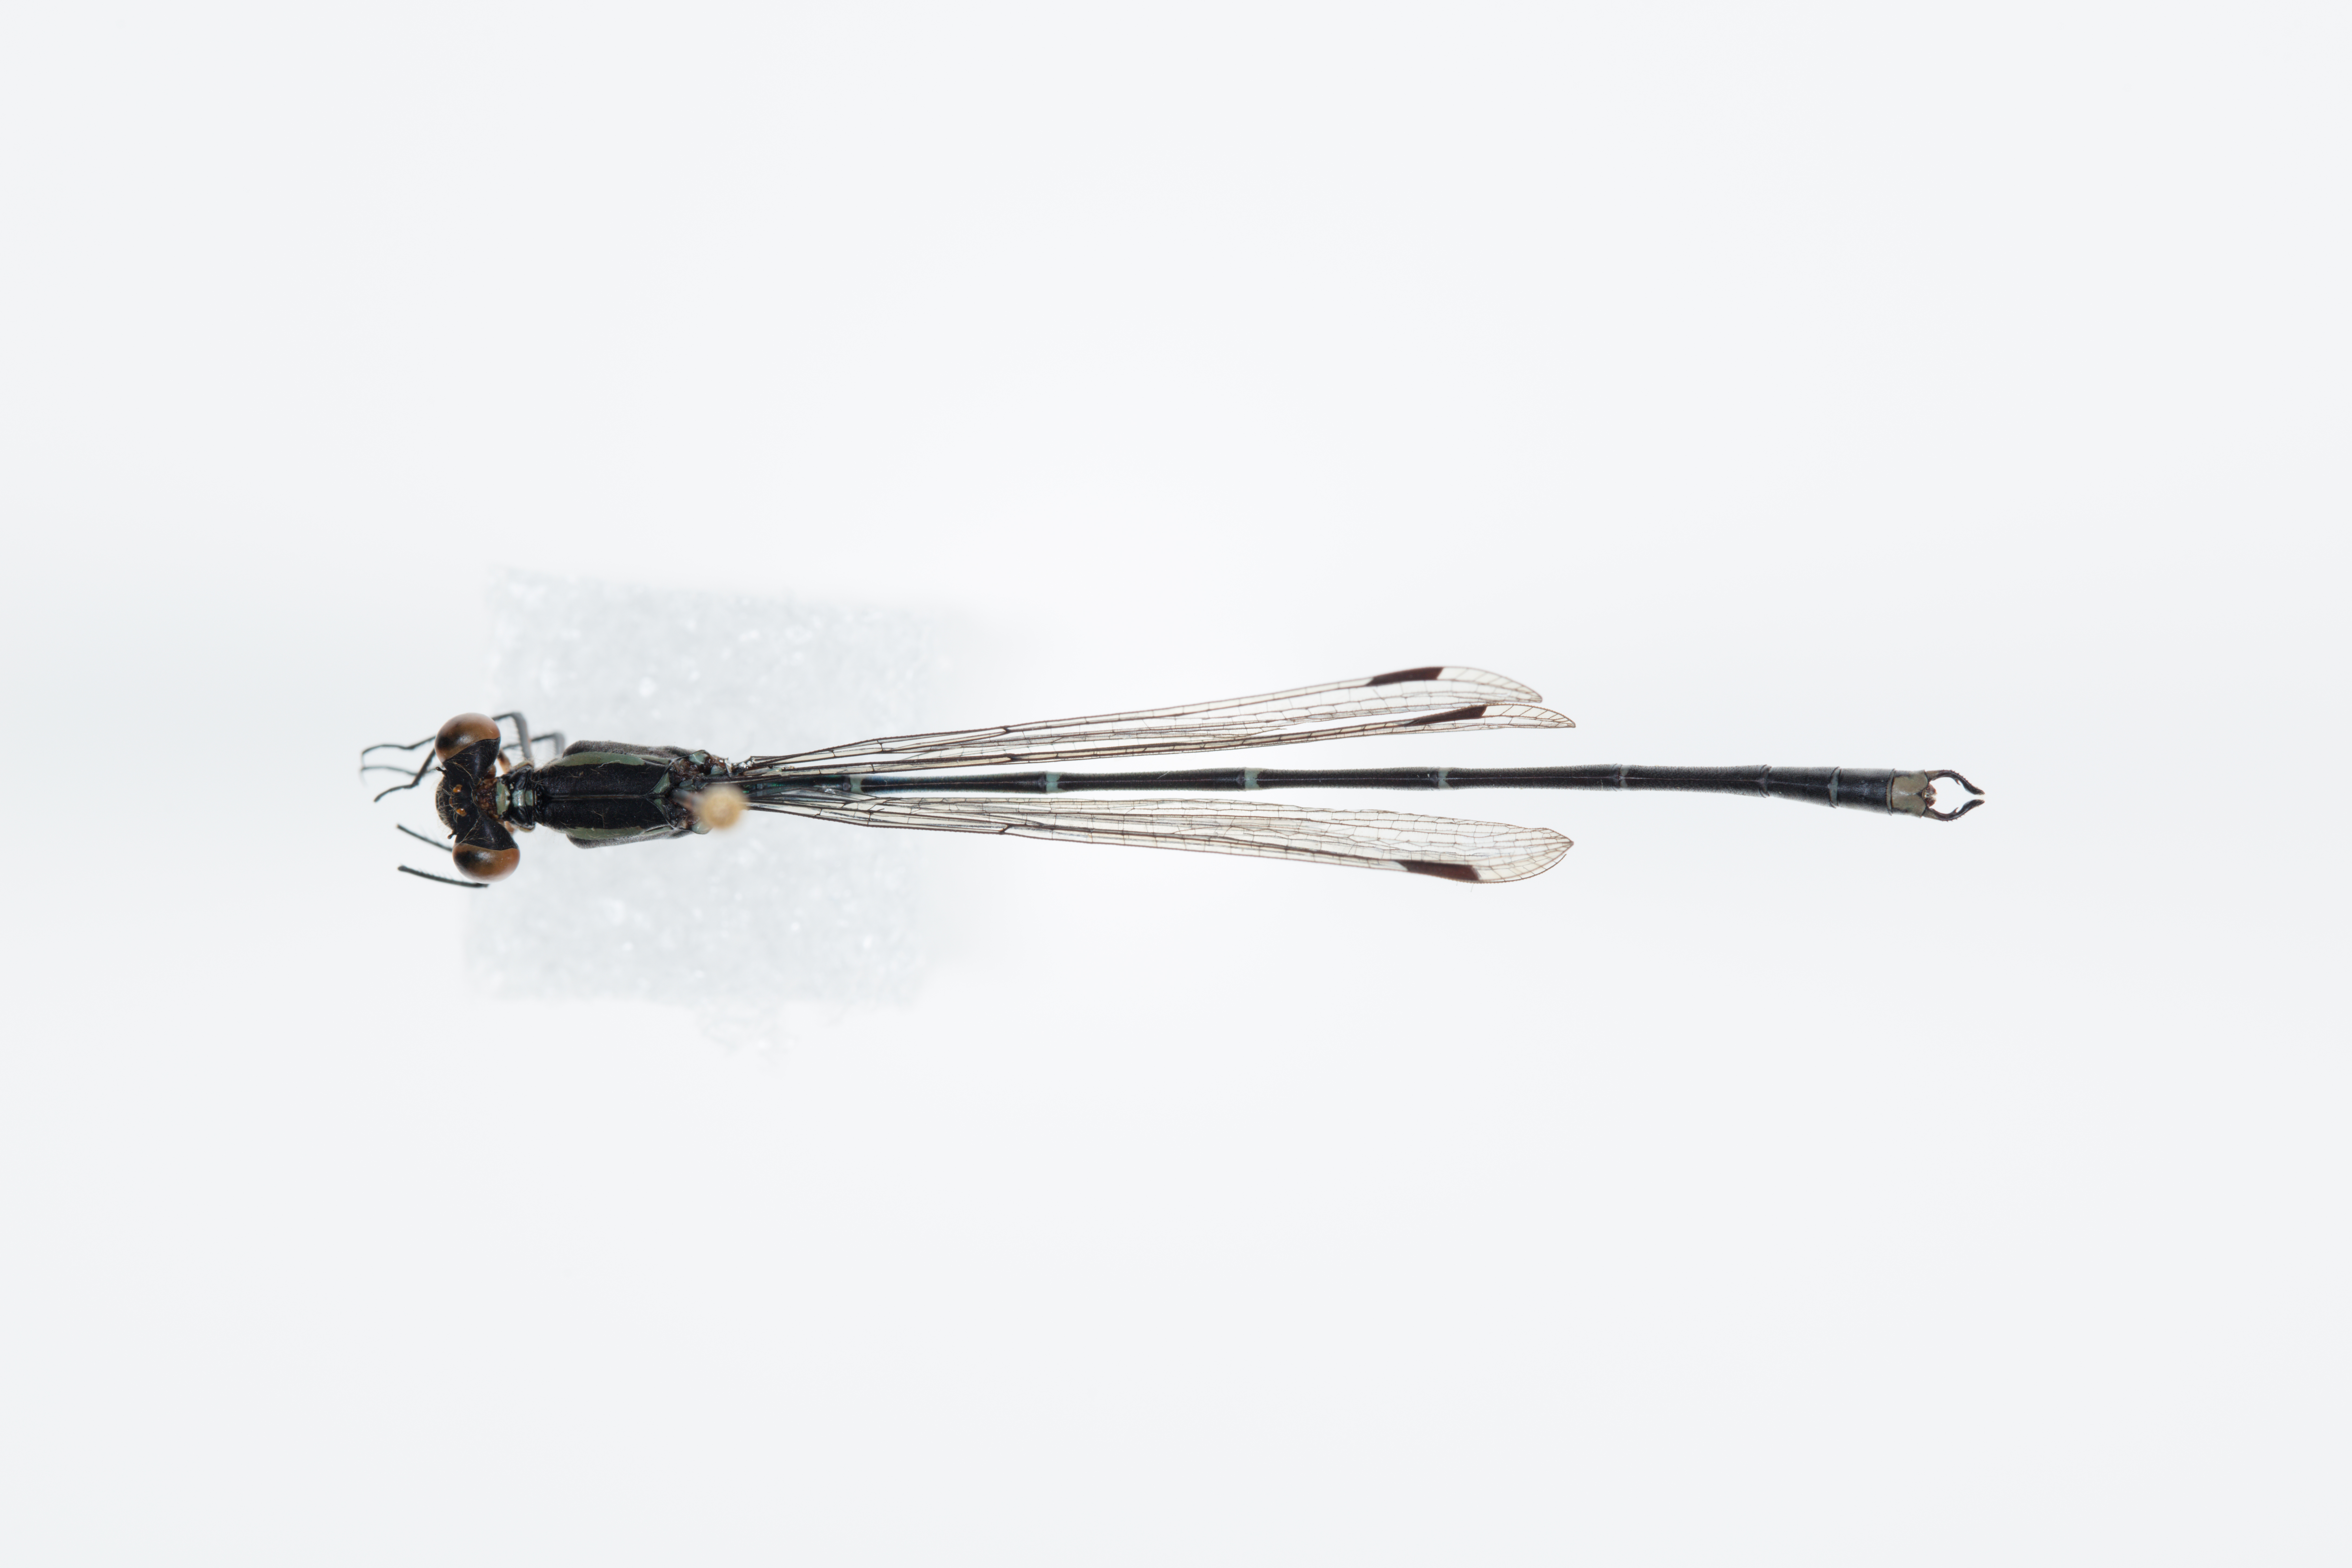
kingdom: Animalia
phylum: Arthropoda
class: Insecta
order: Odonata
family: Lestidae
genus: Austrolestes
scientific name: Austrolestes colensonis
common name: Blue damselfly
